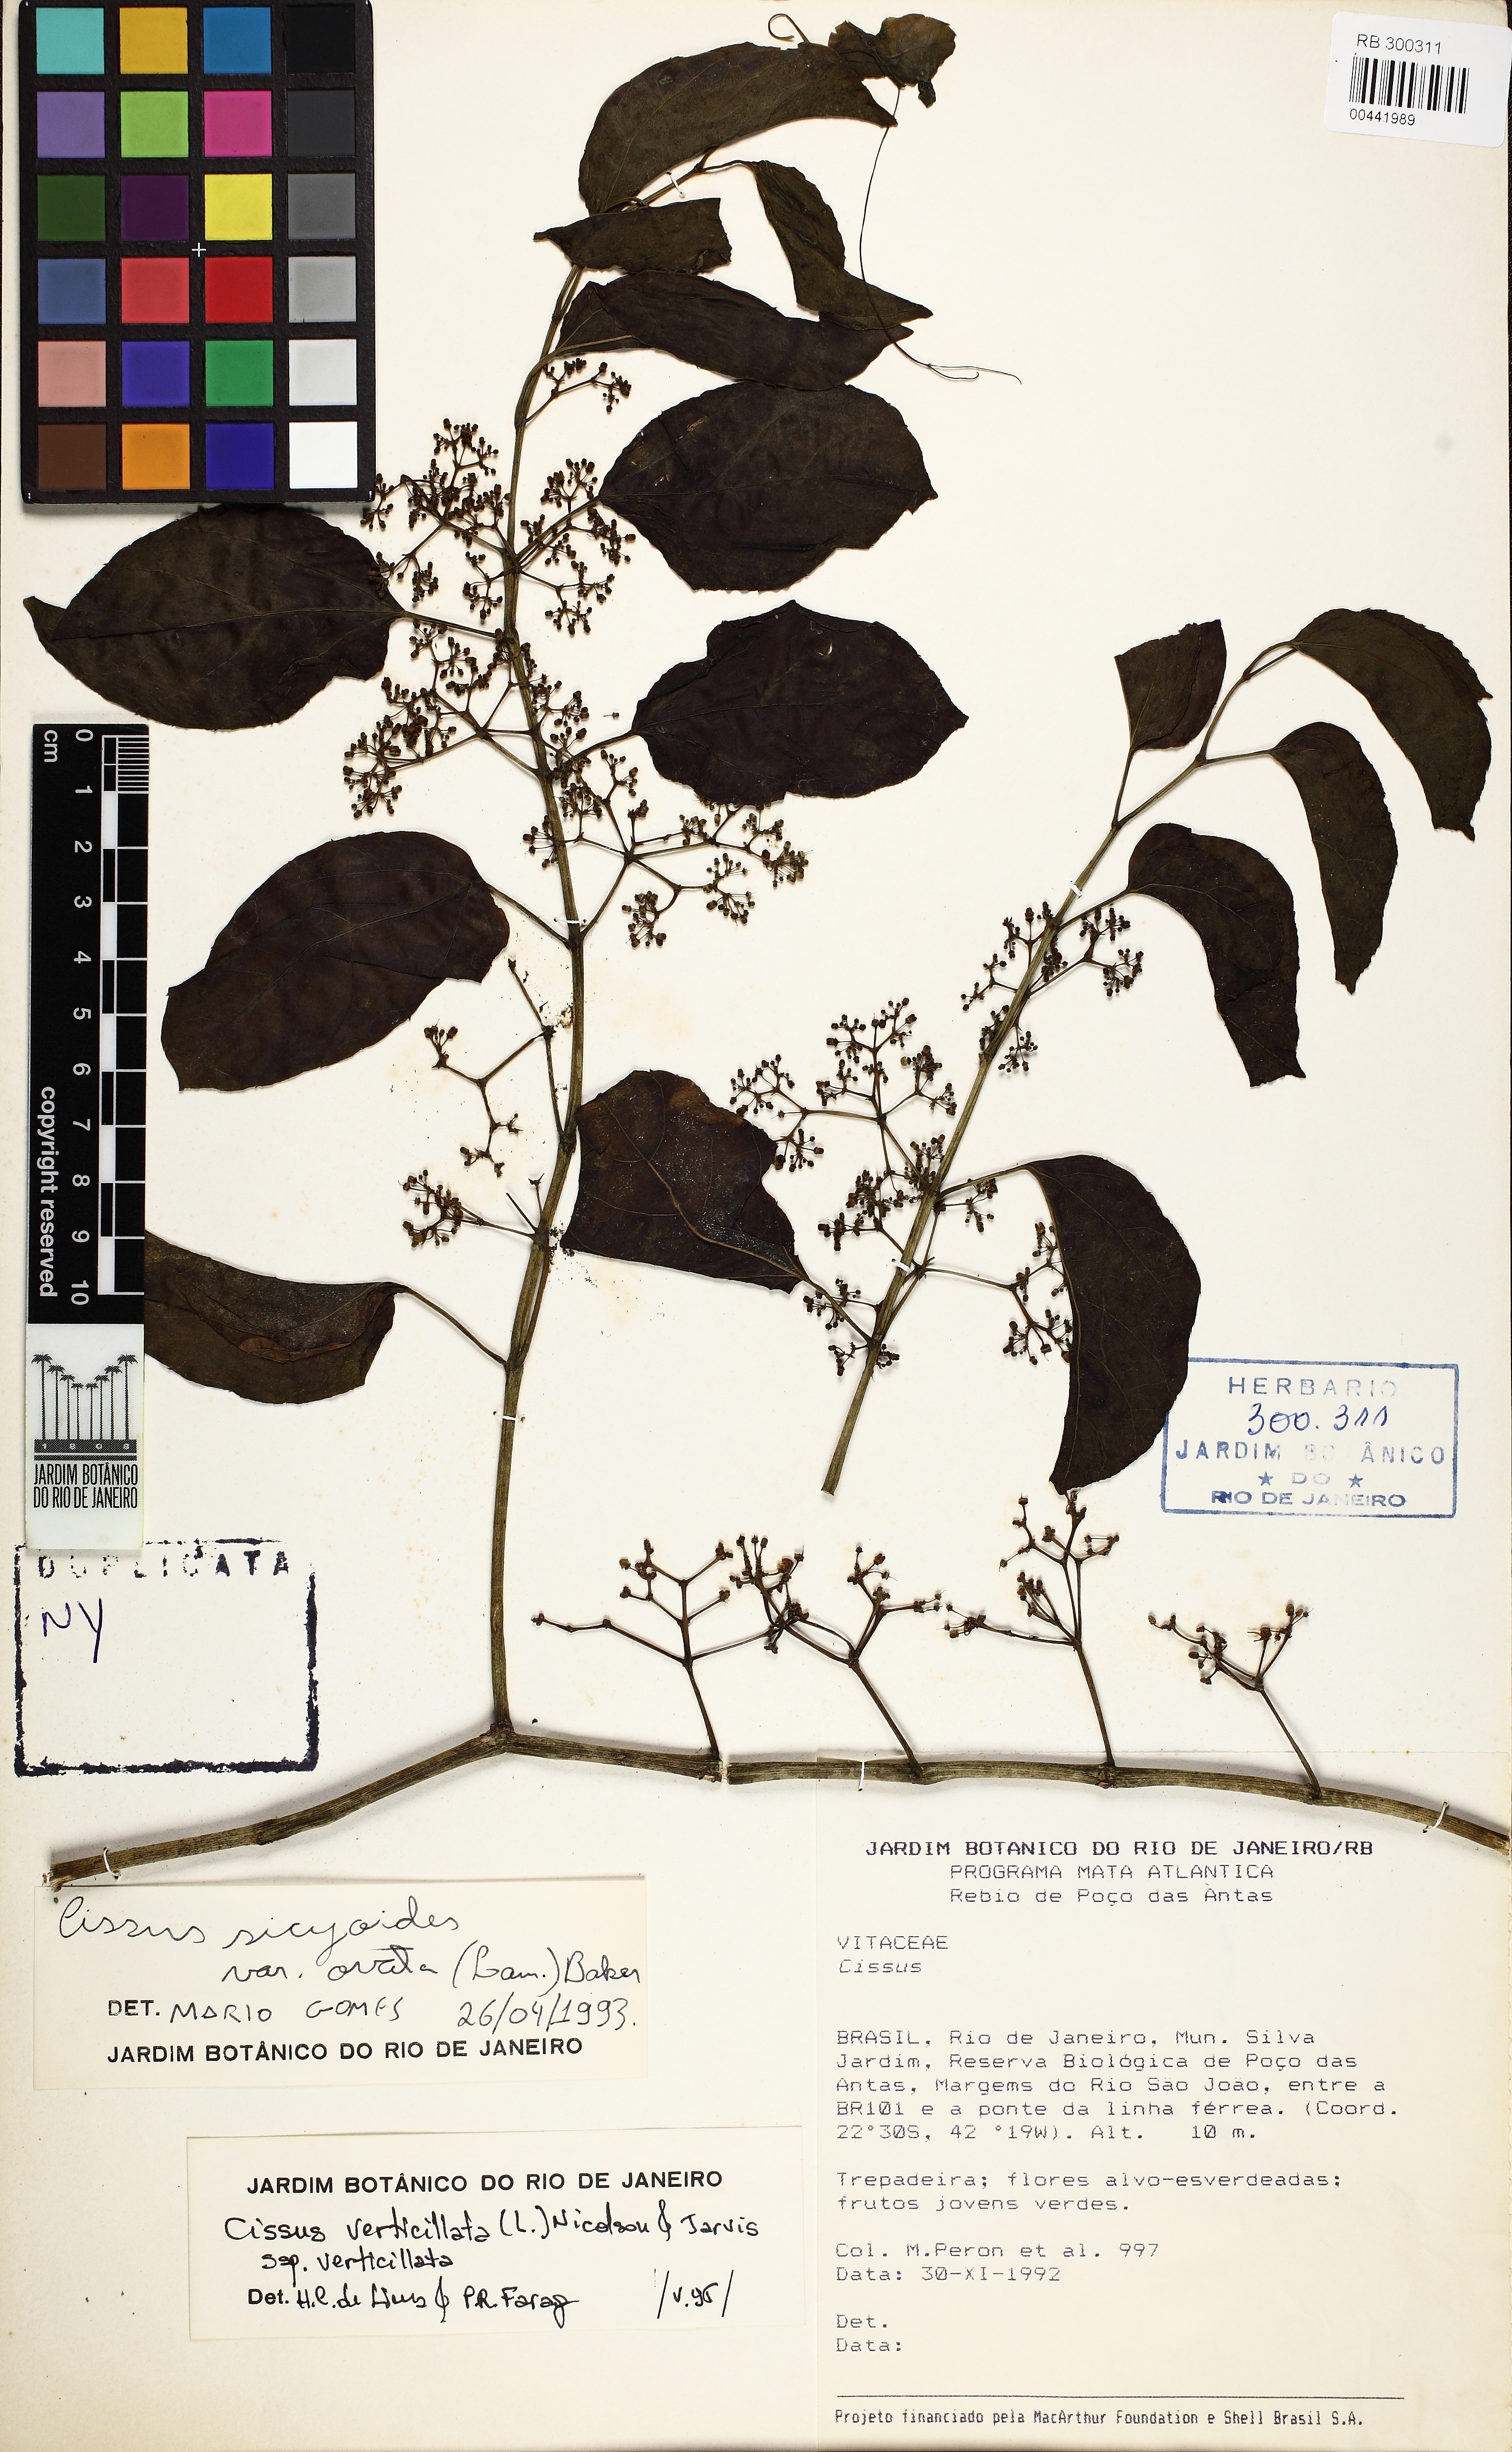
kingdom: Plantae
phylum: Tracheophyta
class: Magnoliopsida
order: Vitales
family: Vitaceae
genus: Cissus
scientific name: Cissus verticillata
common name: Princess vine
